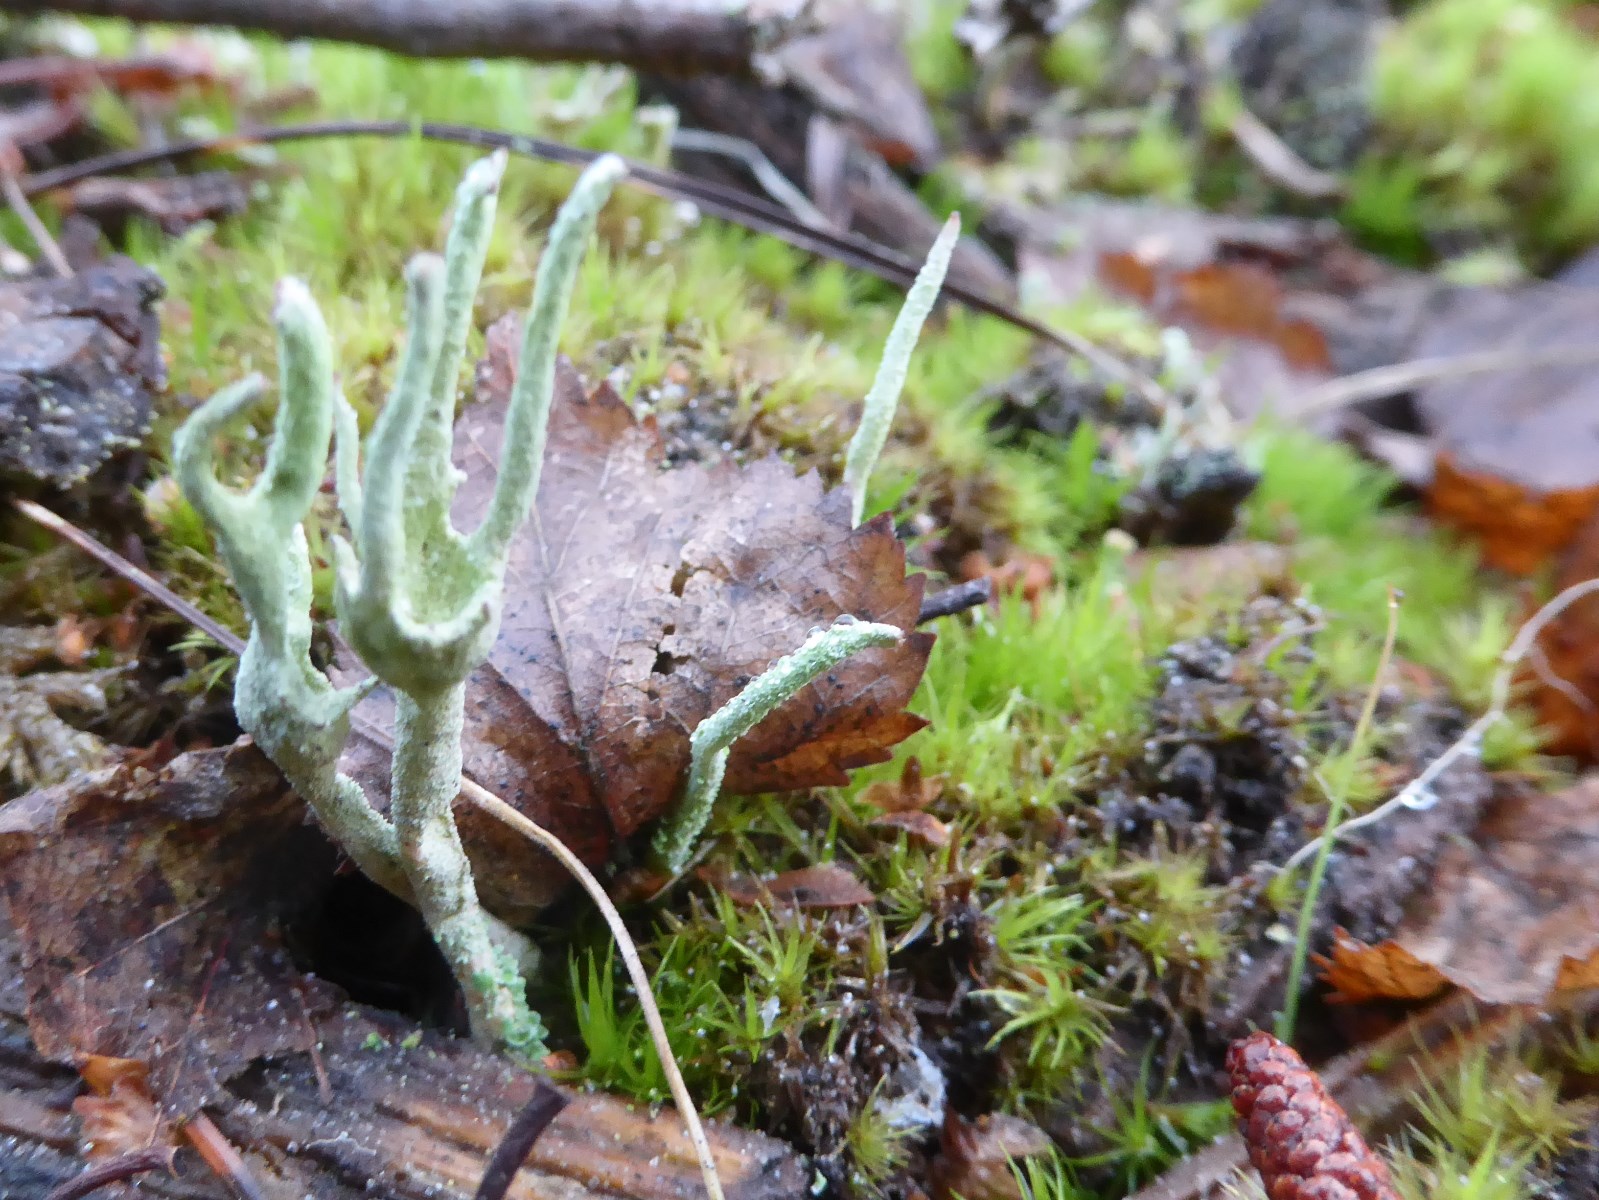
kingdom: Fungi
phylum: Ascomycota
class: Lecanoromycetes
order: Lecanorales
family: Cladoniaceae
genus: Cladonia
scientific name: Cladonia subulata
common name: spids bægerlav
